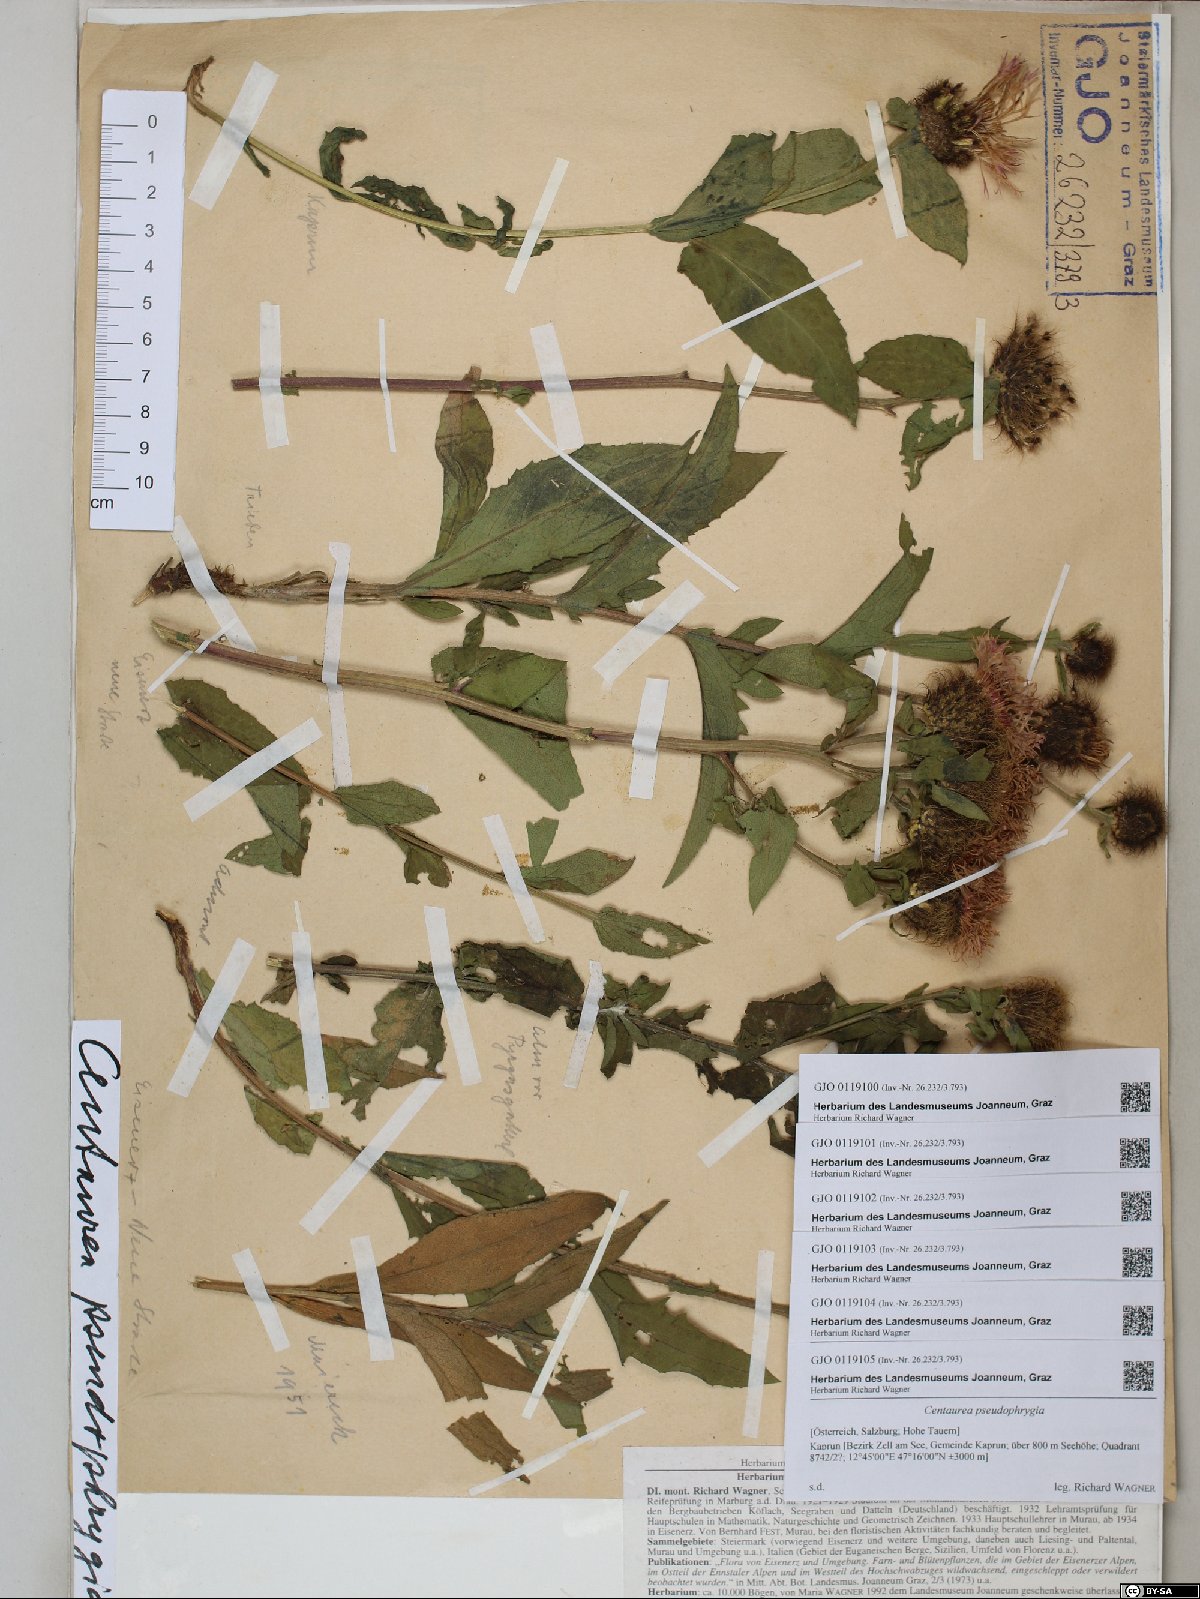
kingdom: Plantae
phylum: Tracheophyta
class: Magnoliopsida
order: Asterales
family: Asteraceae
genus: Centaurea
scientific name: Centaurea pseudophrygia
